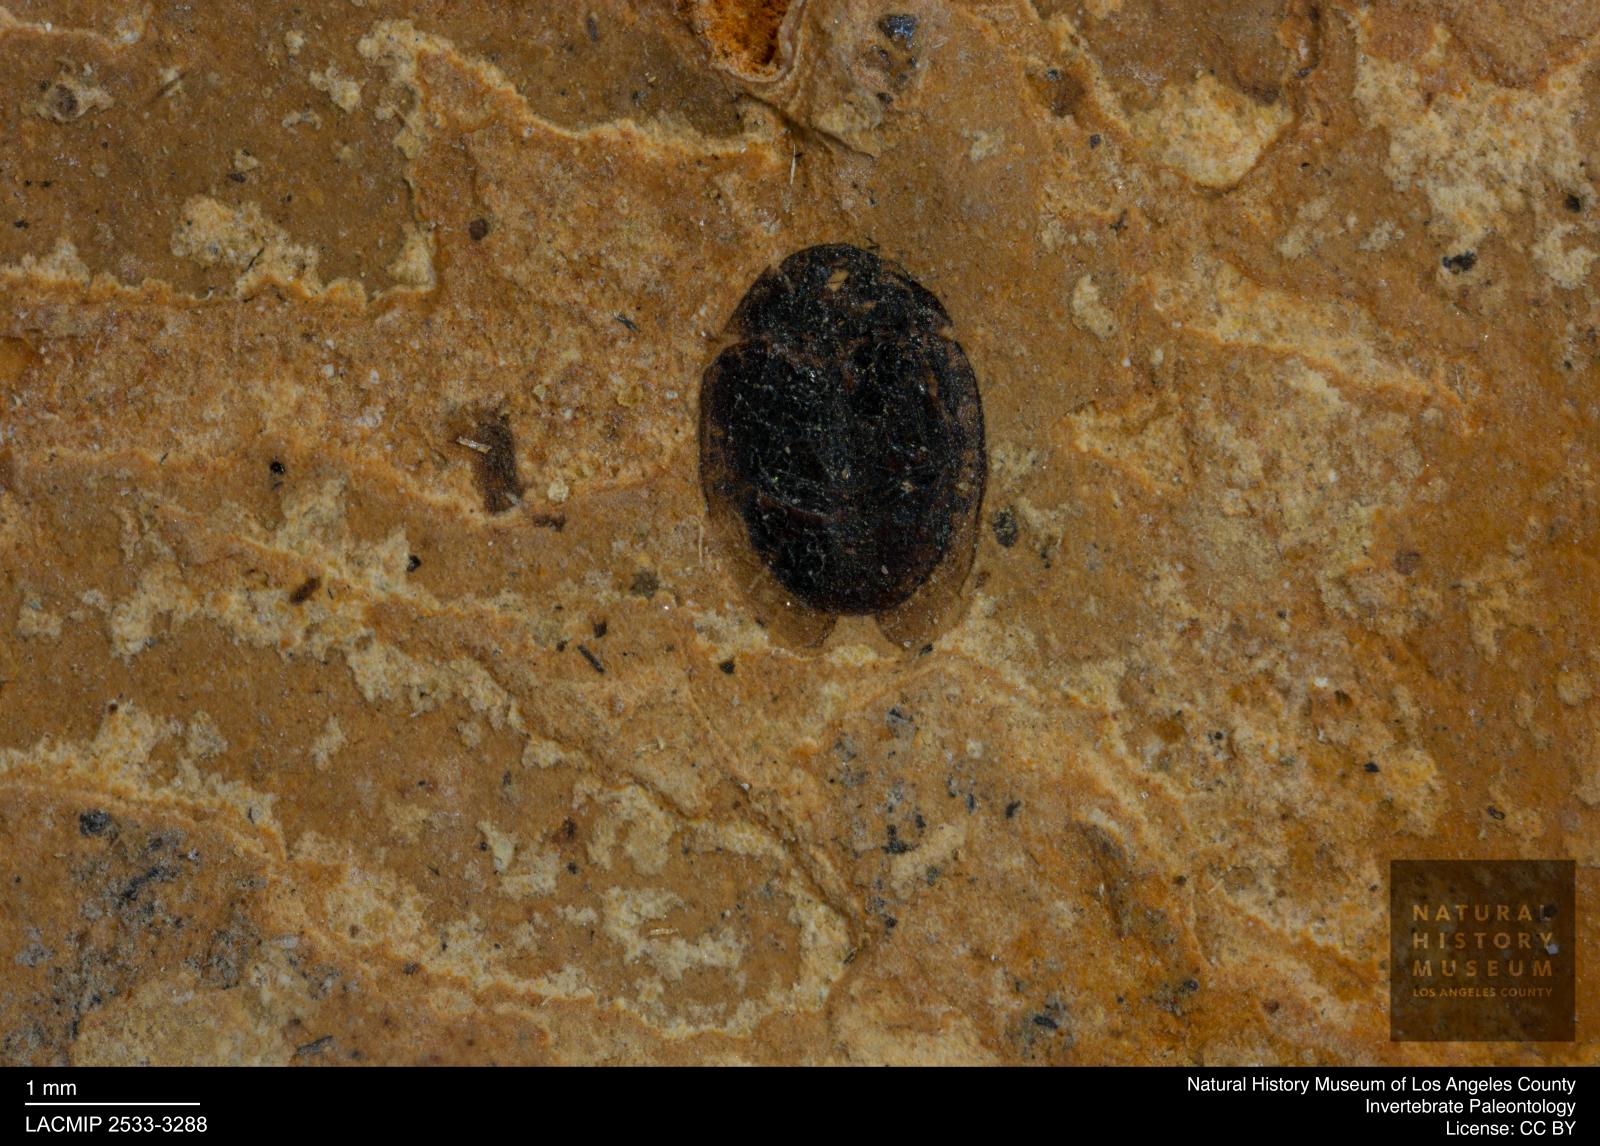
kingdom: Animalia
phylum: Arthropoda
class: Insecta
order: Coleoptera
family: Hydrophilidae
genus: Paracymus
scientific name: Paracymus excitatus
